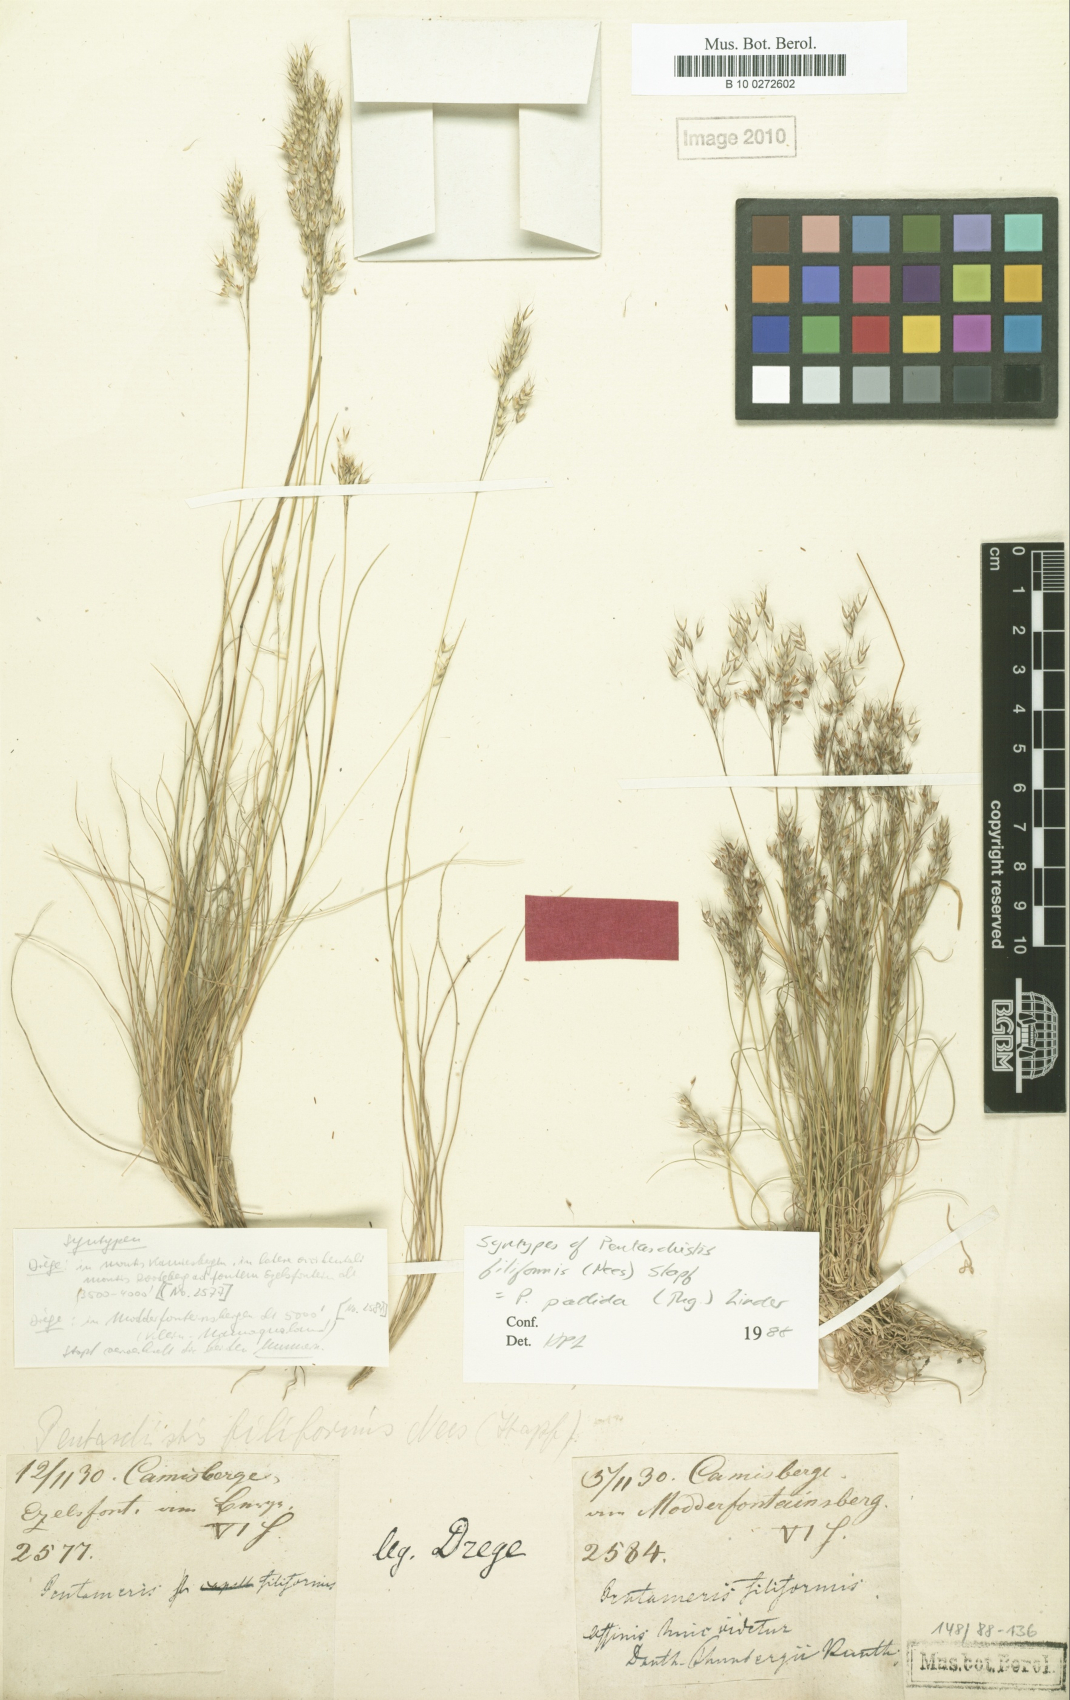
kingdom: Plantae
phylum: Tracheophyta
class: Liliopsida
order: Poales
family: Poaceae
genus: Pentameris
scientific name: Pentameris pallida
